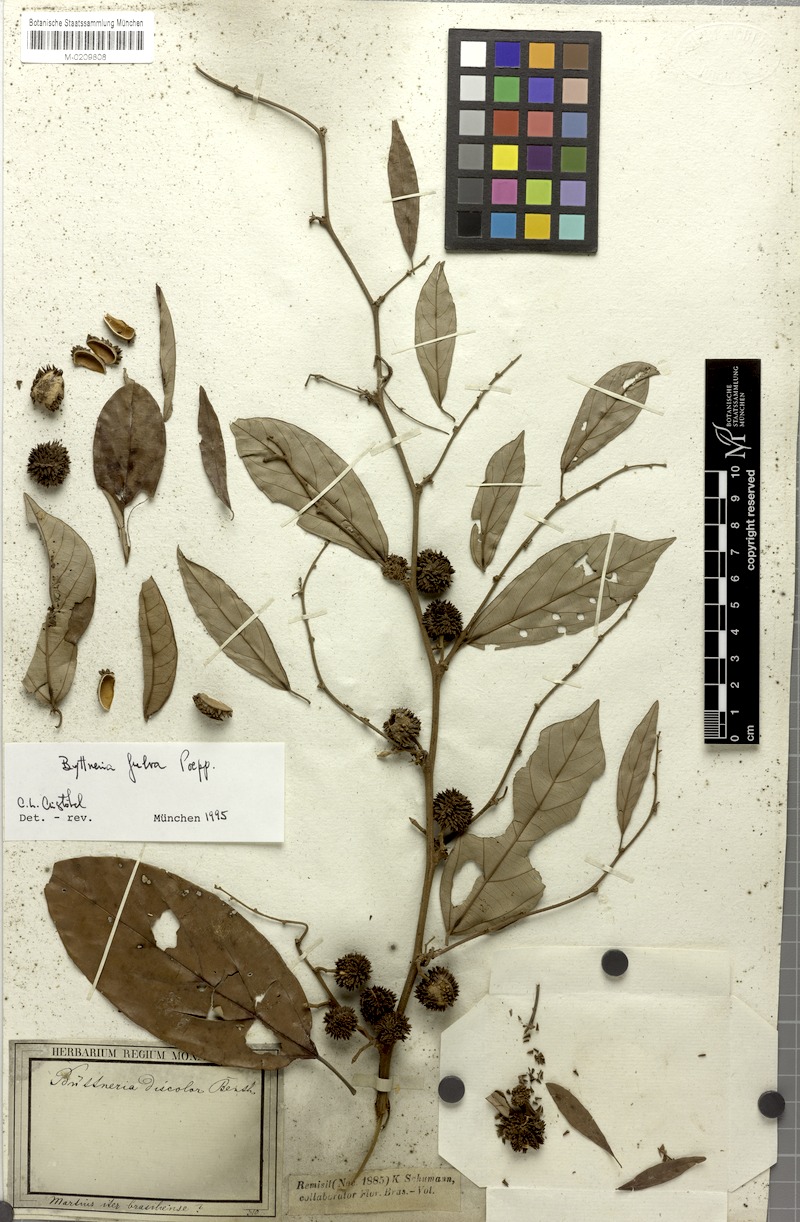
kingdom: Plantae
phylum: Tracheophyta
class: Magnoliopsida
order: Malvales
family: Malvaceae
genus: Byttneria
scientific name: Byttneria fulva
